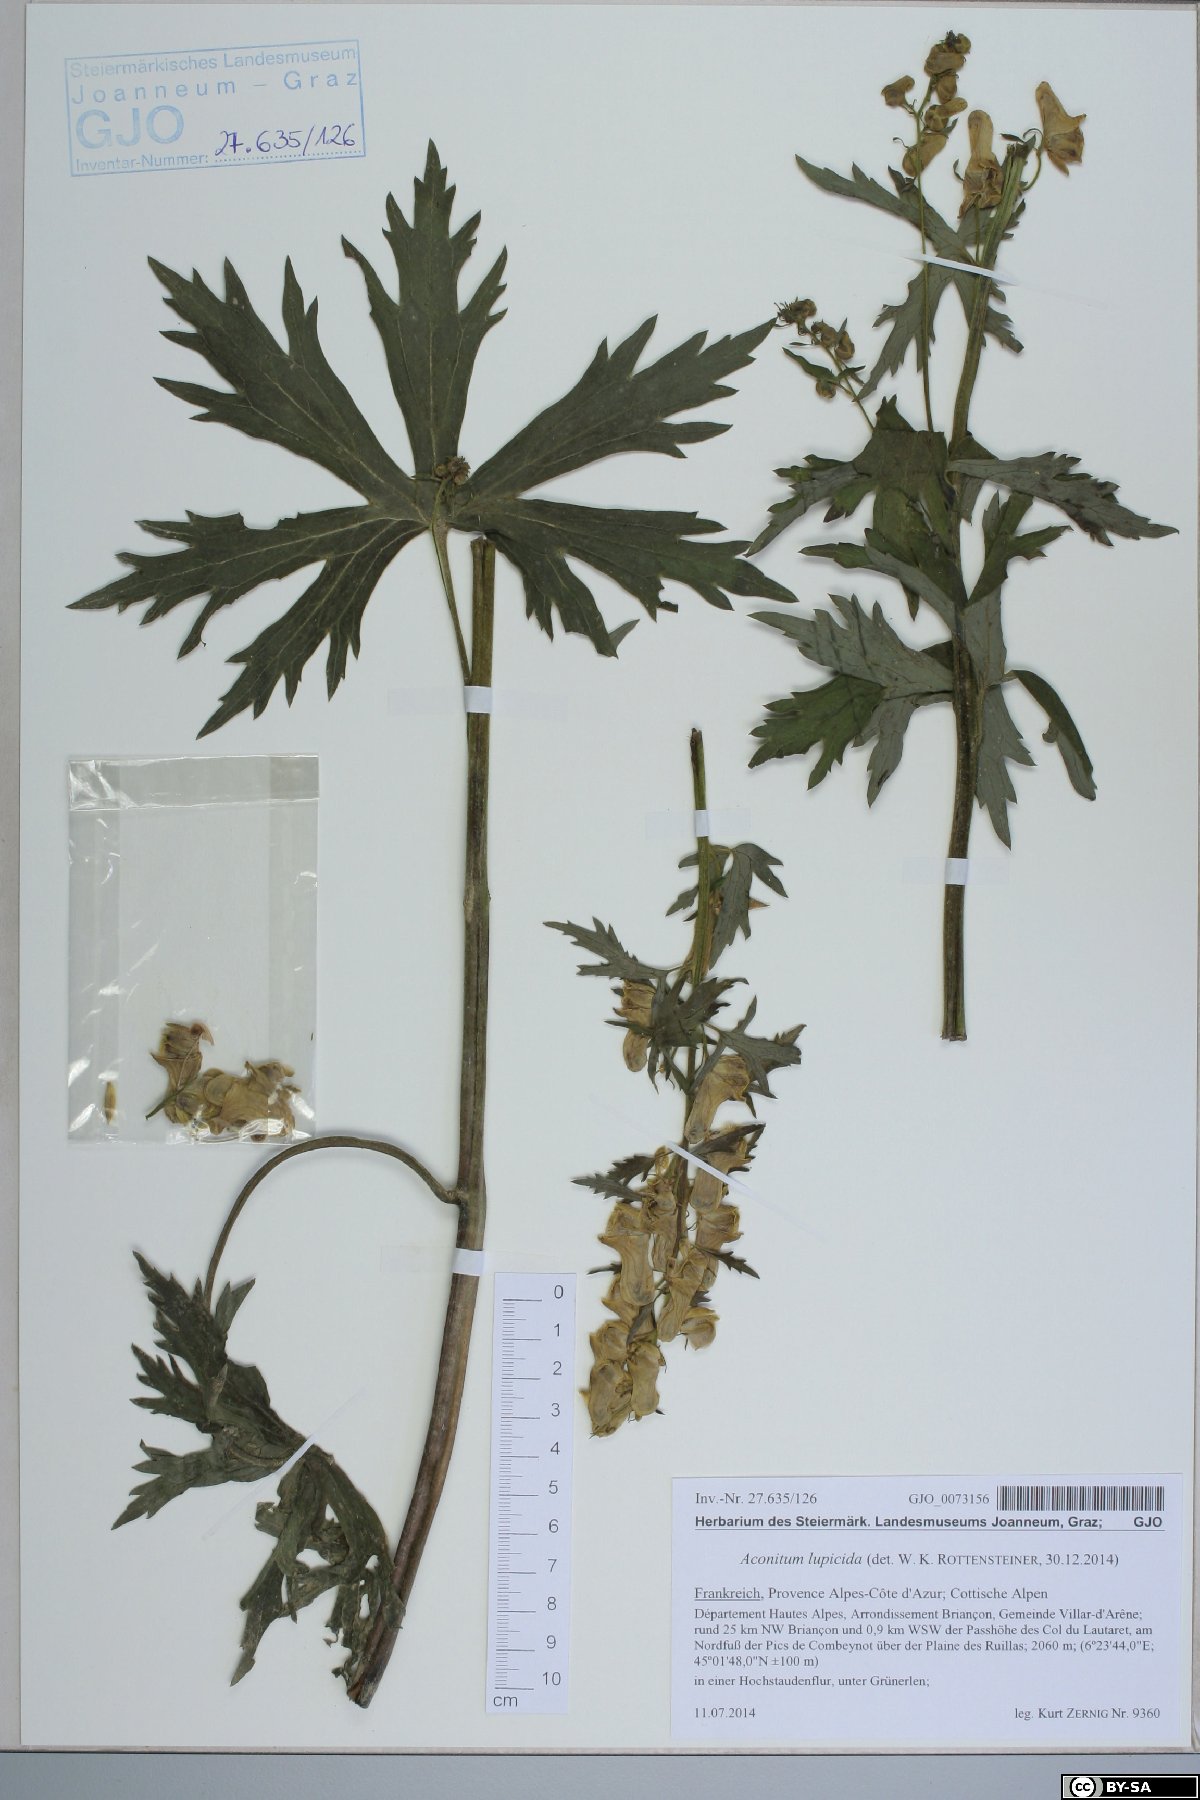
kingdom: Plantae
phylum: Tracheophyta
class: Magnoliopsida
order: Ranunculales
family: Ranunculaceae
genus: Aconitum
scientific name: Aconitum lycoctonum
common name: Wolf's-bane
